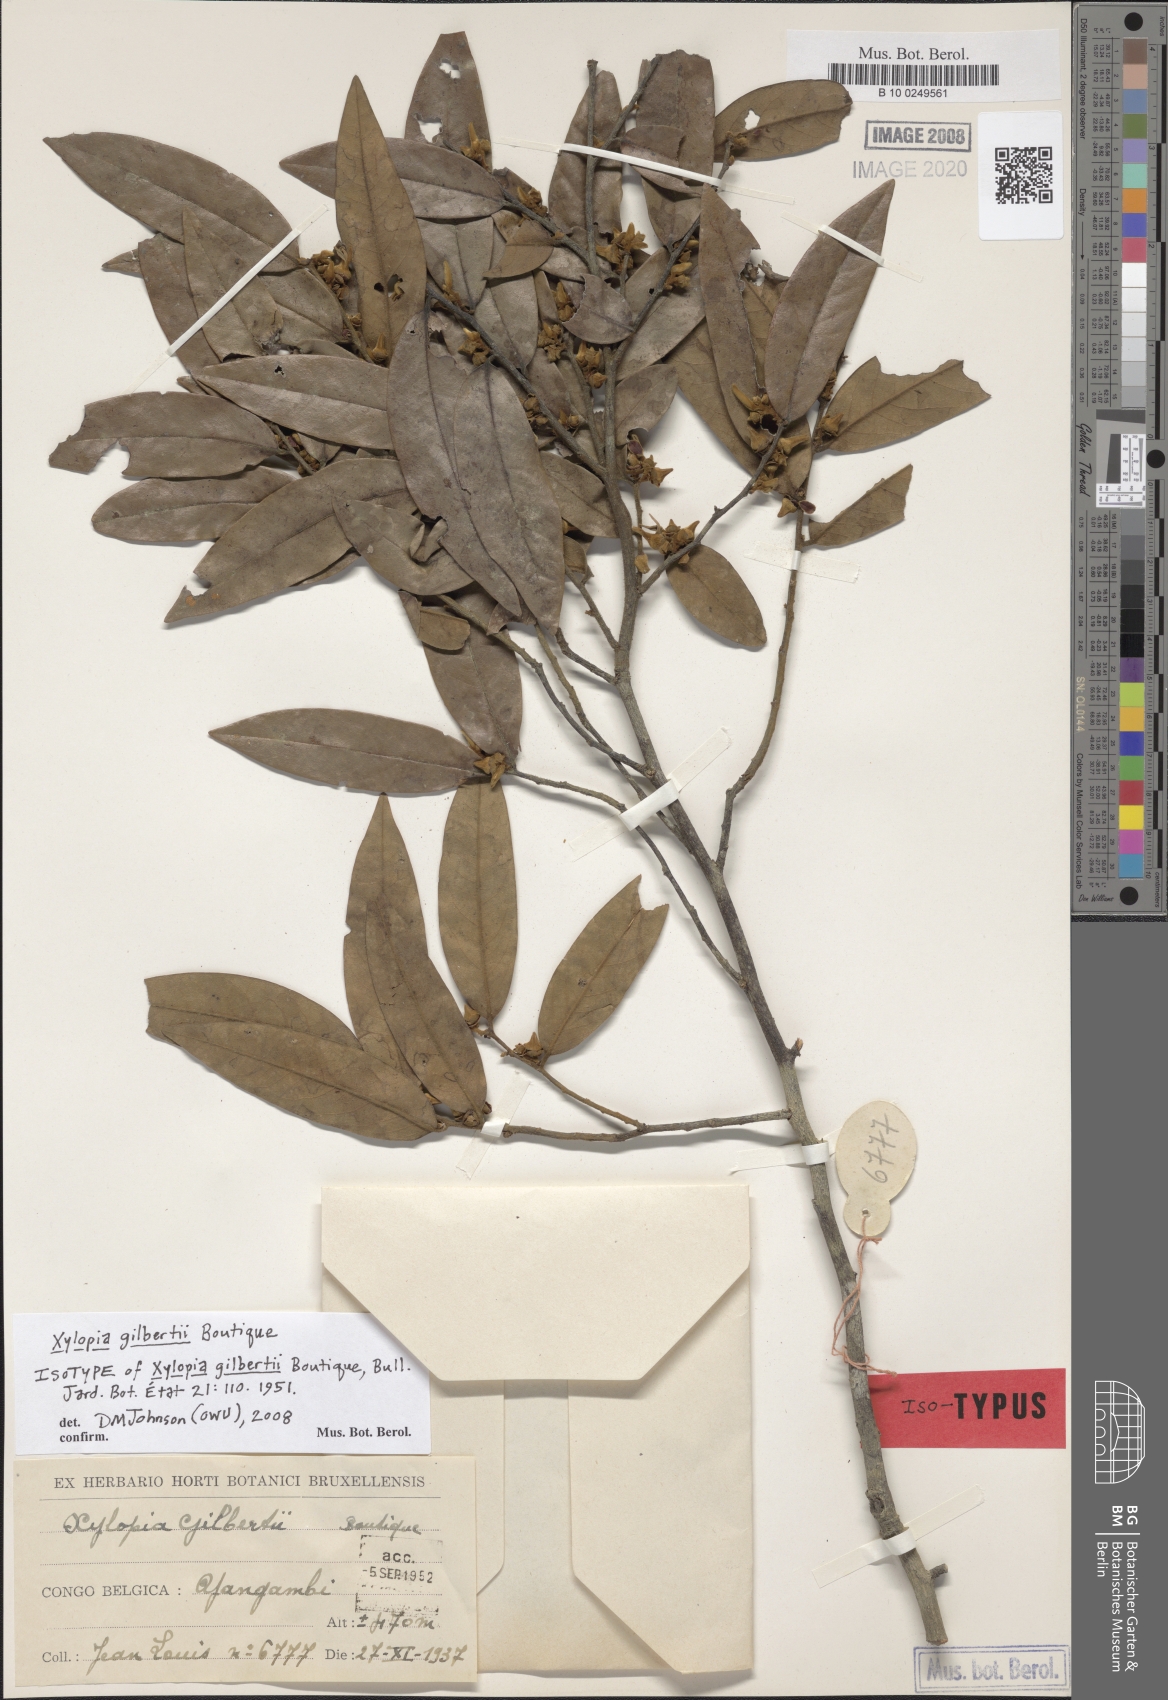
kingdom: Plantae
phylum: Tracheophyta
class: Magnoliopsida
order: Magnoliales
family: Annonaceae
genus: Xylopia
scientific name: Xylopia gilbertii
